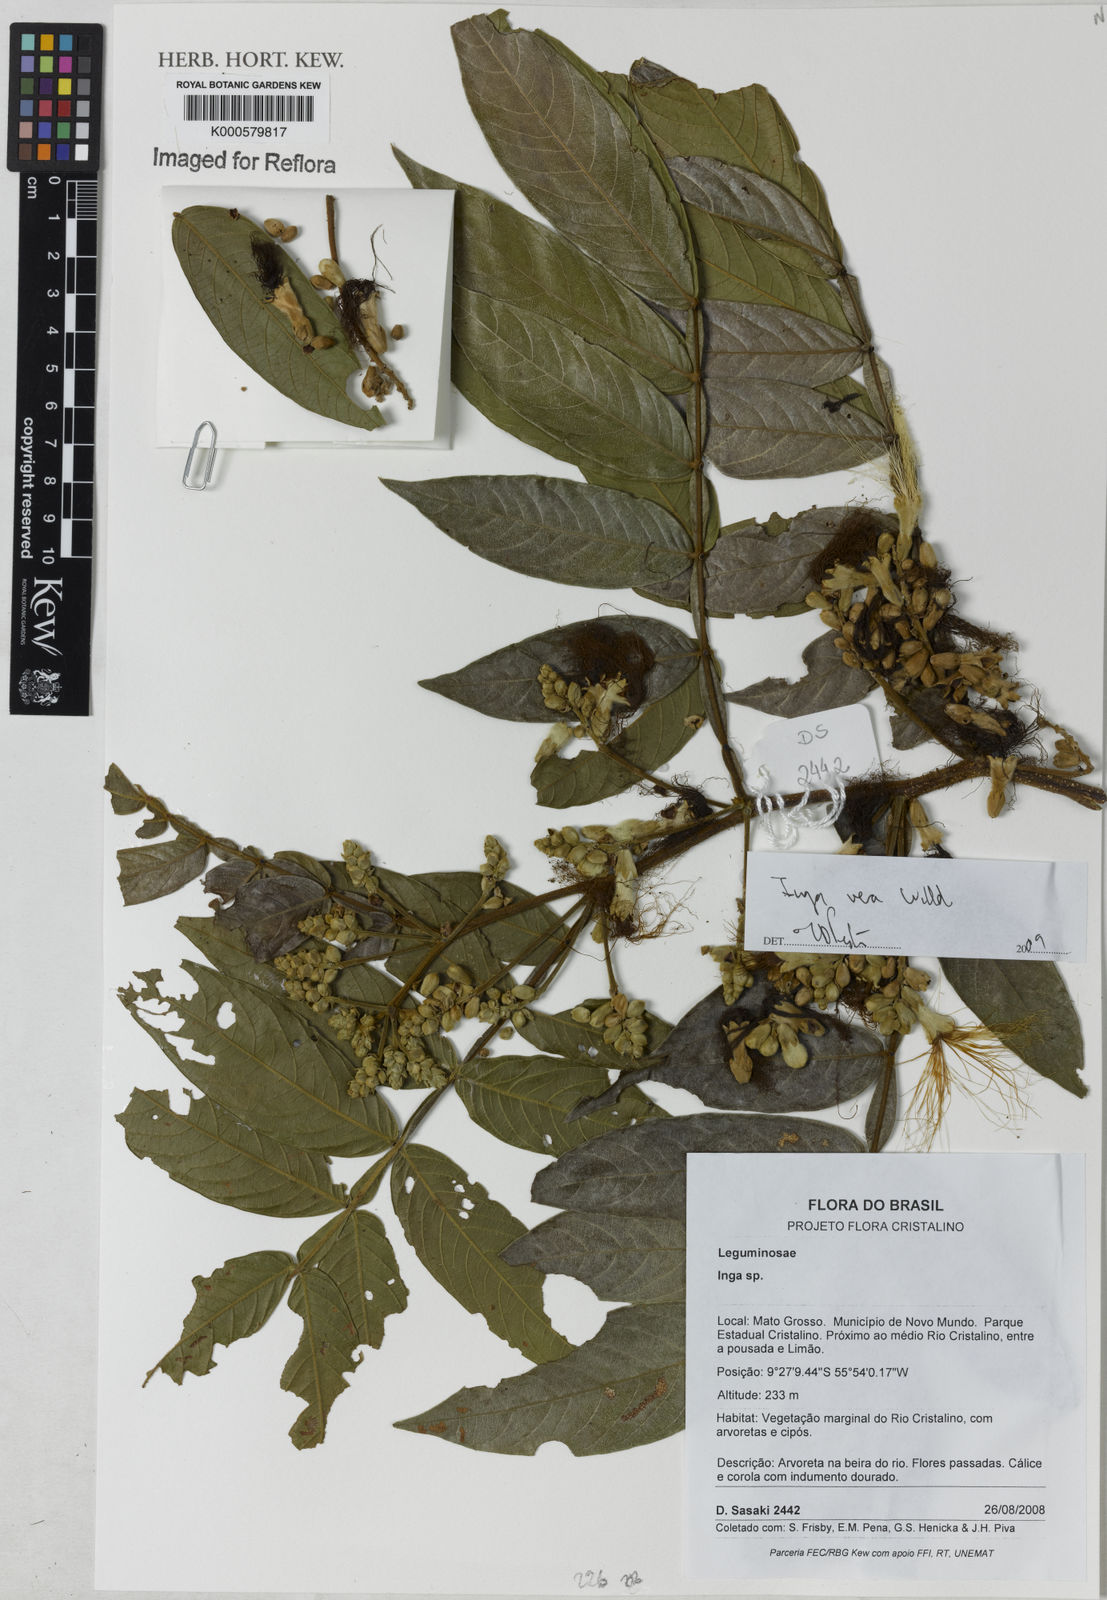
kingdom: Plantae
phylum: Tracheophyta
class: Magnoliopsida
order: Fabales
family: Fabaceae
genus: Inga
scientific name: Inga vera
